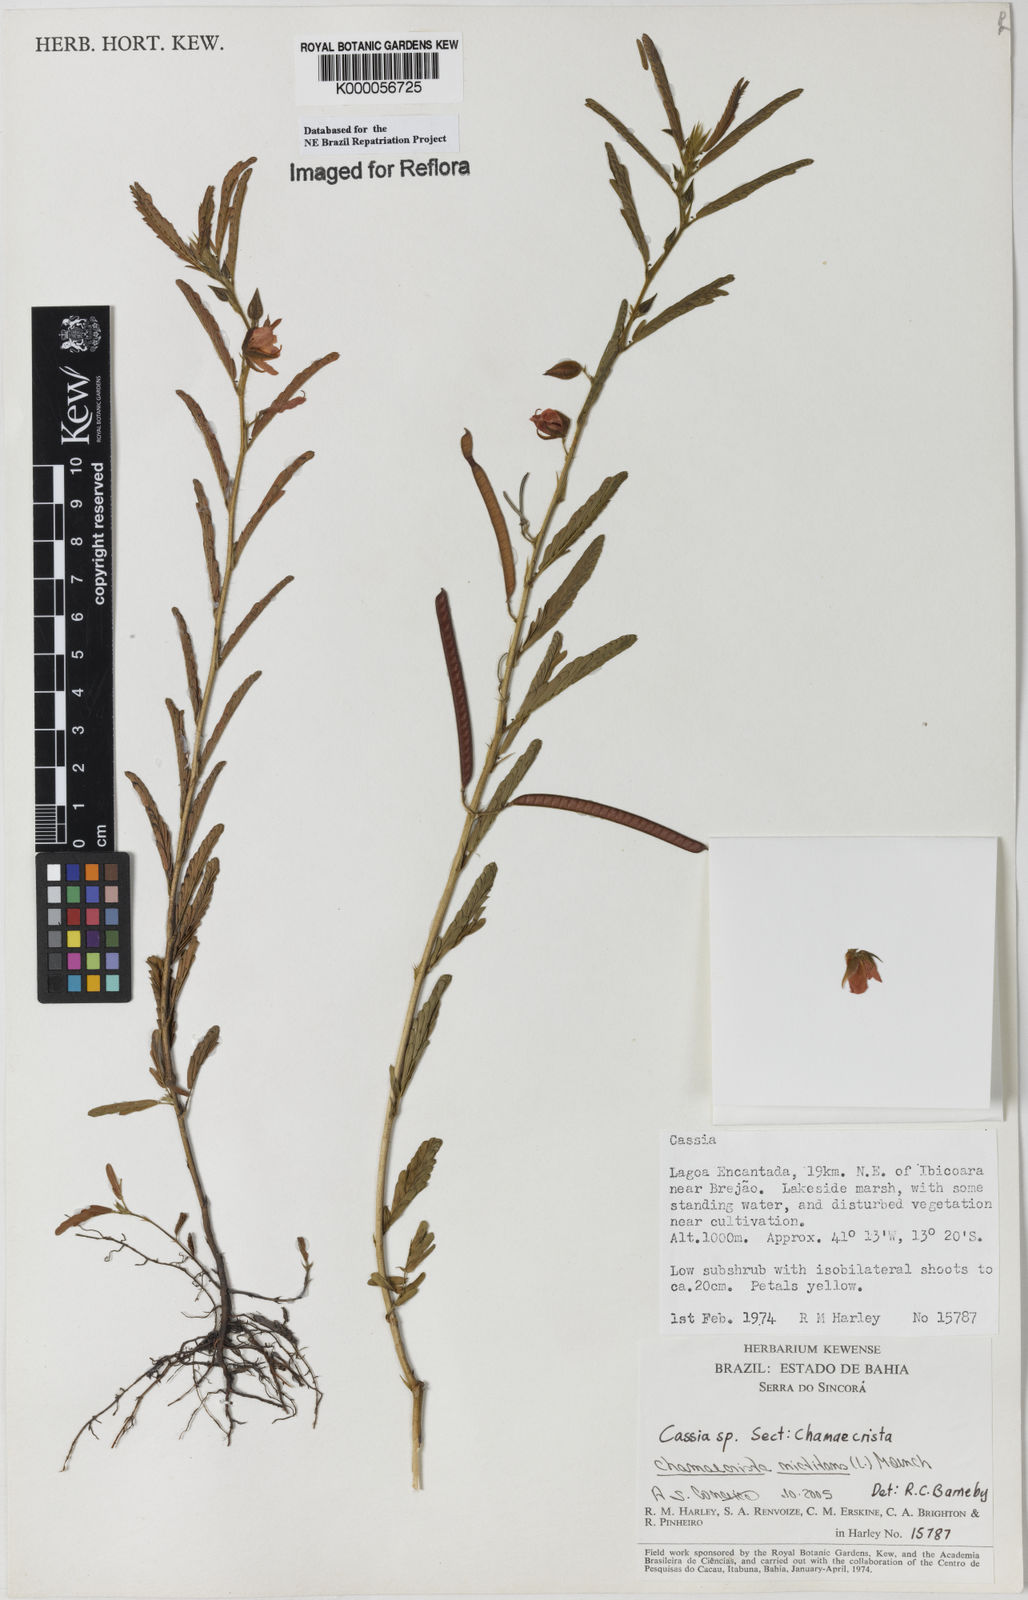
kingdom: Plantae
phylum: Tracheophyta
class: Magnoliopsida
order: Fabales
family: Fabaceae
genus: Chamaecrista
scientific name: Chamaecrista
